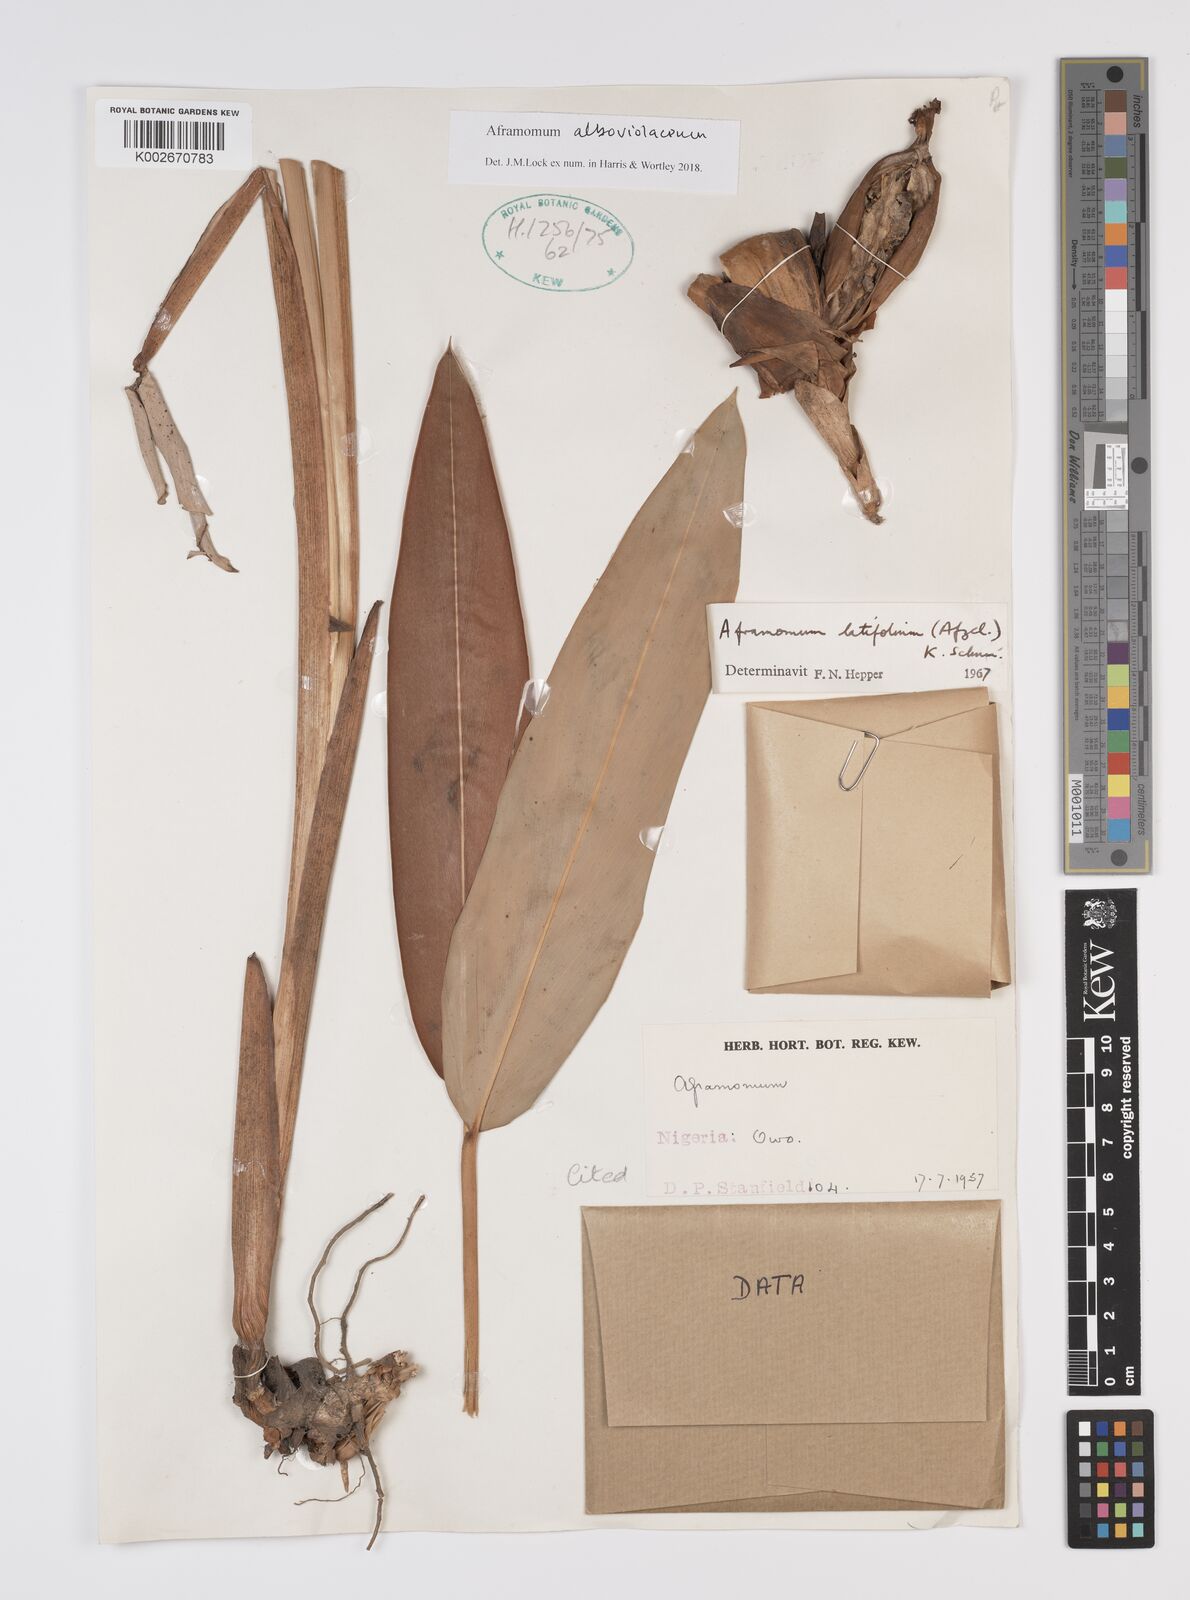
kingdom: Plantae
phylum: Tracheophyta
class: Liliopsida
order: Zingiberales
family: Zingiberaceae
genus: Aframomum
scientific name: Aframomum alboviolaceum
